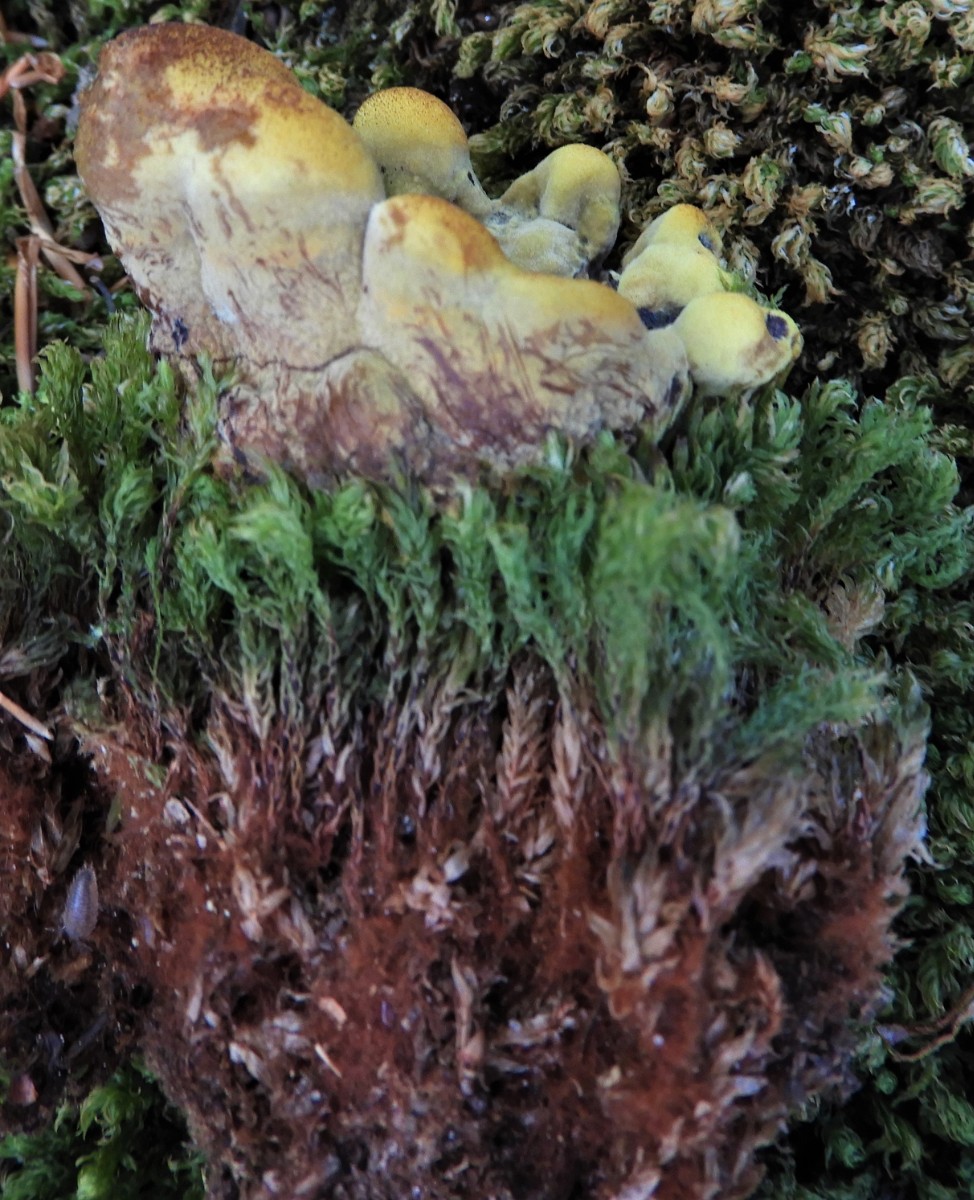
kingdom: Fungi
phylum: Basidiomycota
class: Agaricomycetes
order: Polyporales
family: Laetiporaceae
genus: Phaeolus
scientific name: Phaeolus schweinitzii
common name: brunporesvamp
